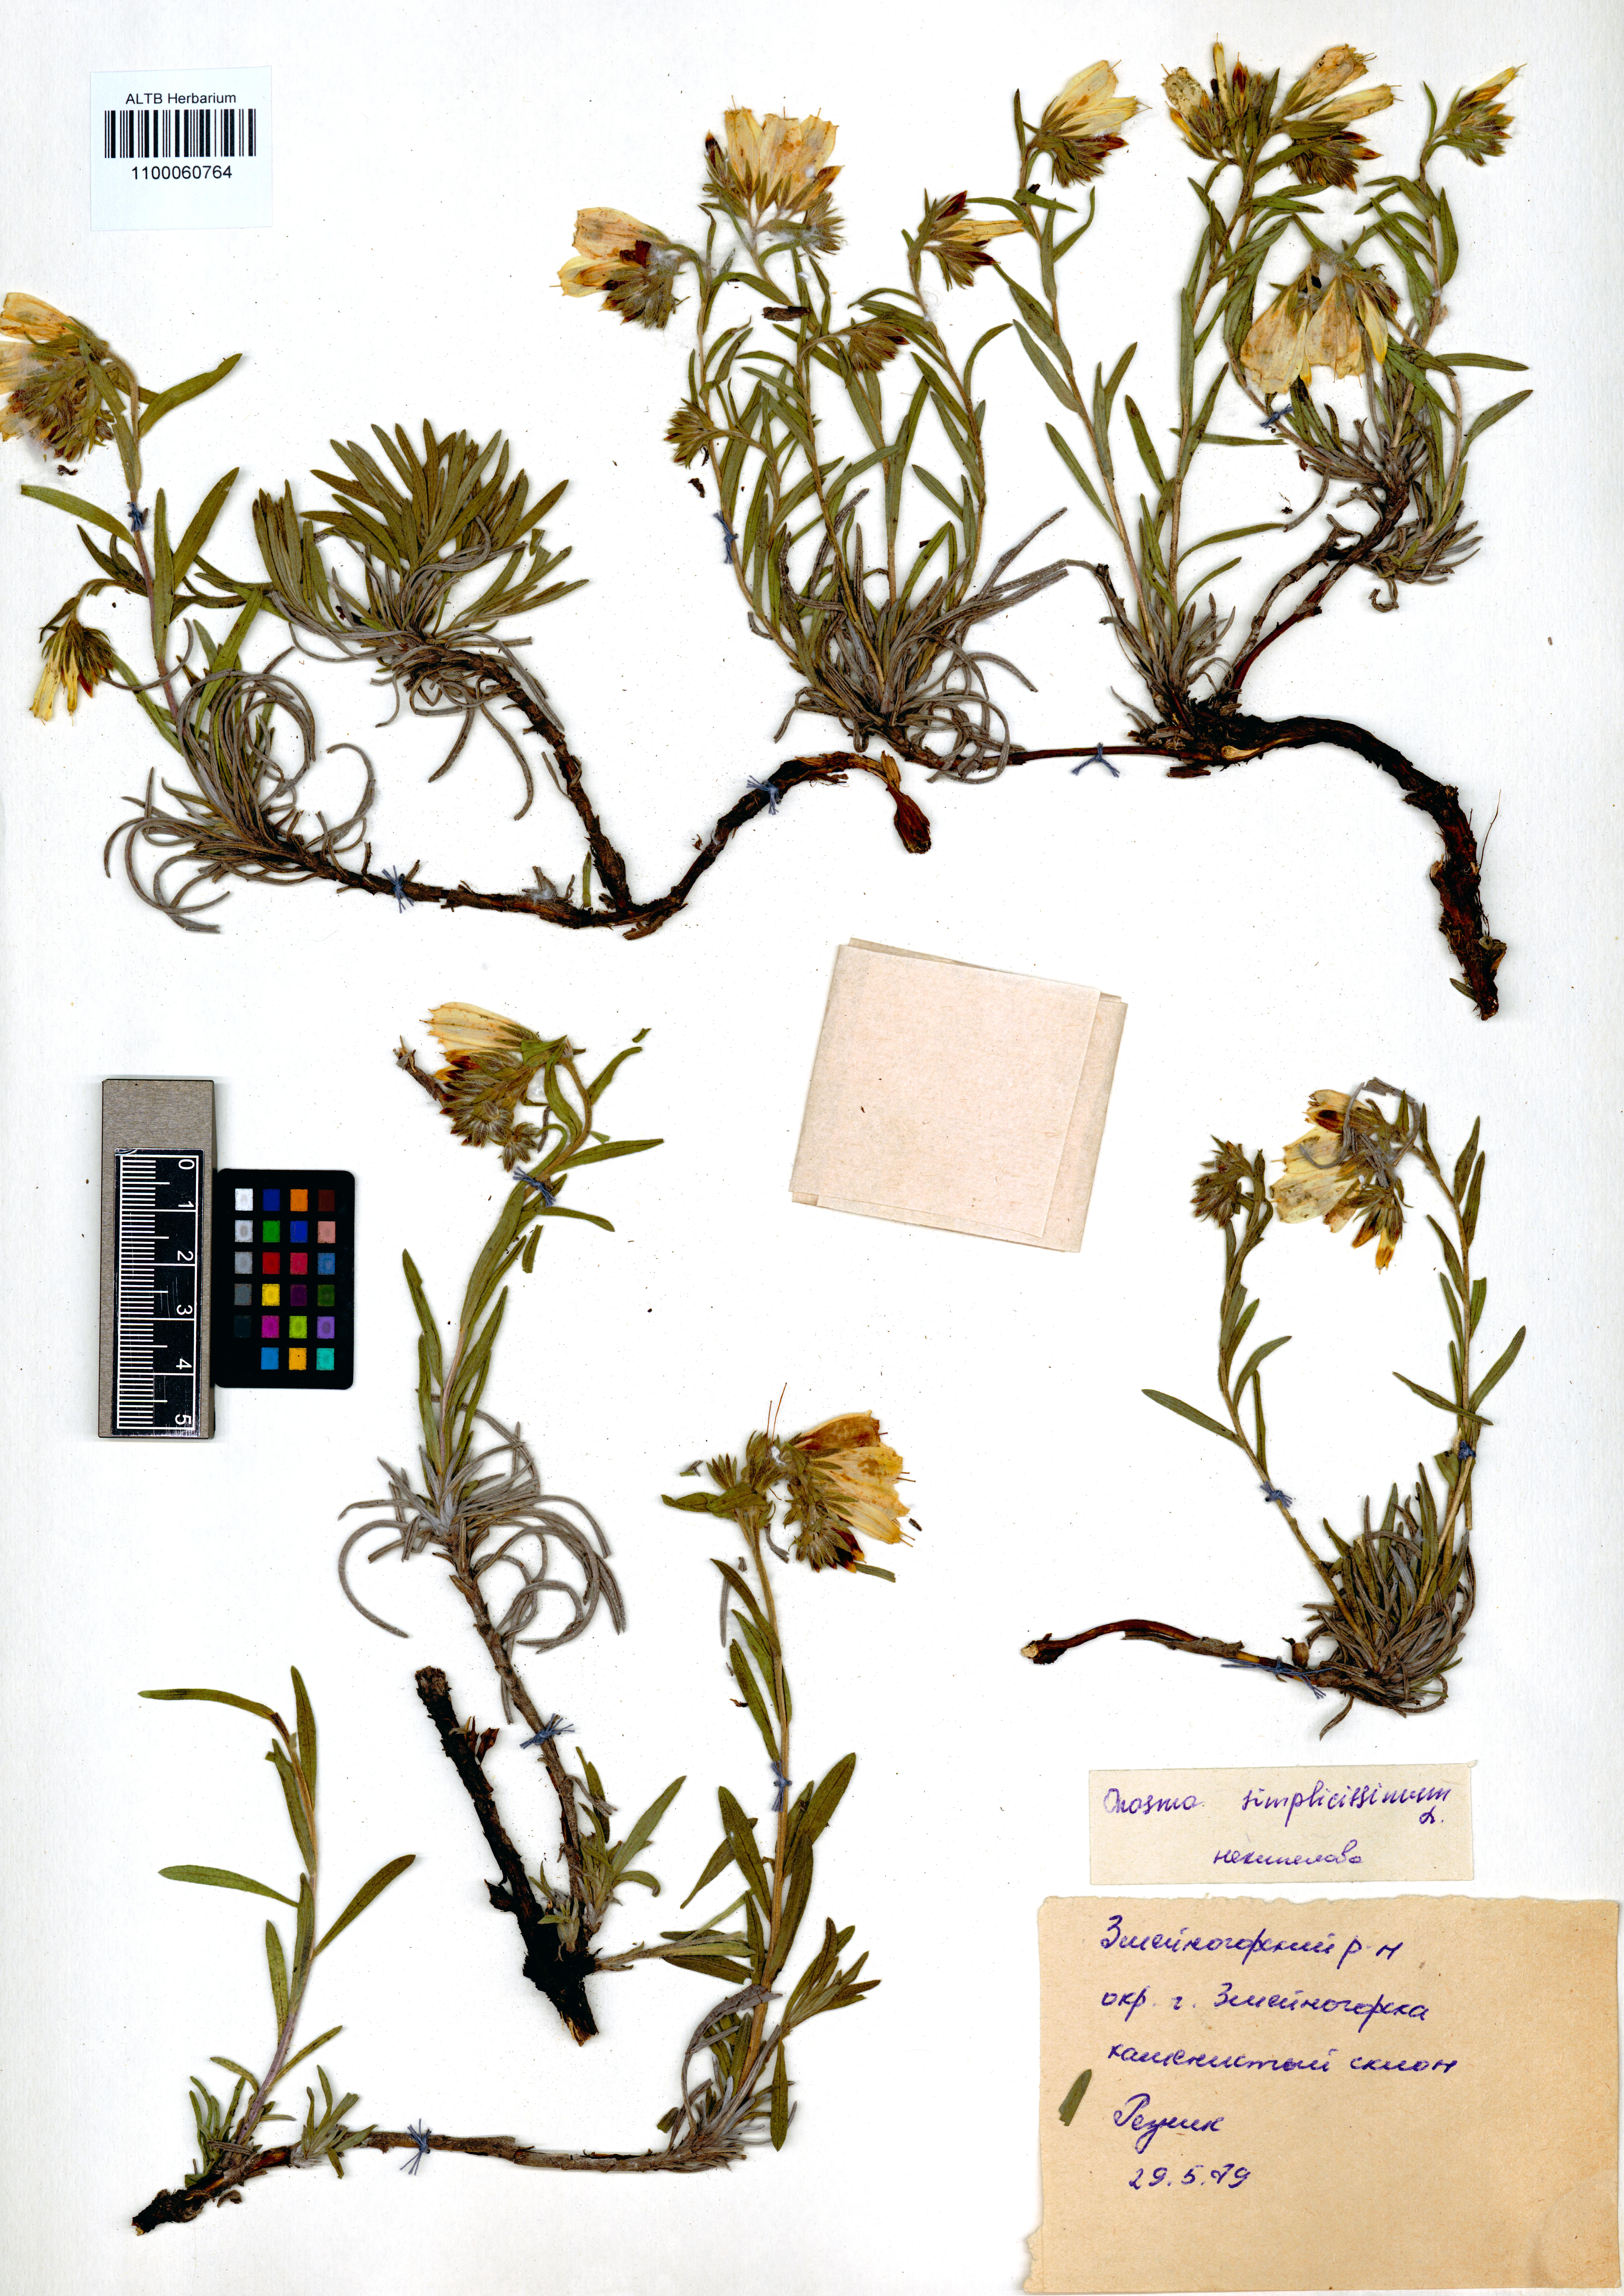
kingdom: Plantae
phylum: Tracheophyta
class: Magnoliopsida
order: Boraginales
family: Boraginaceae
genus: Onosma
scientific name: Onosma simplicissima
